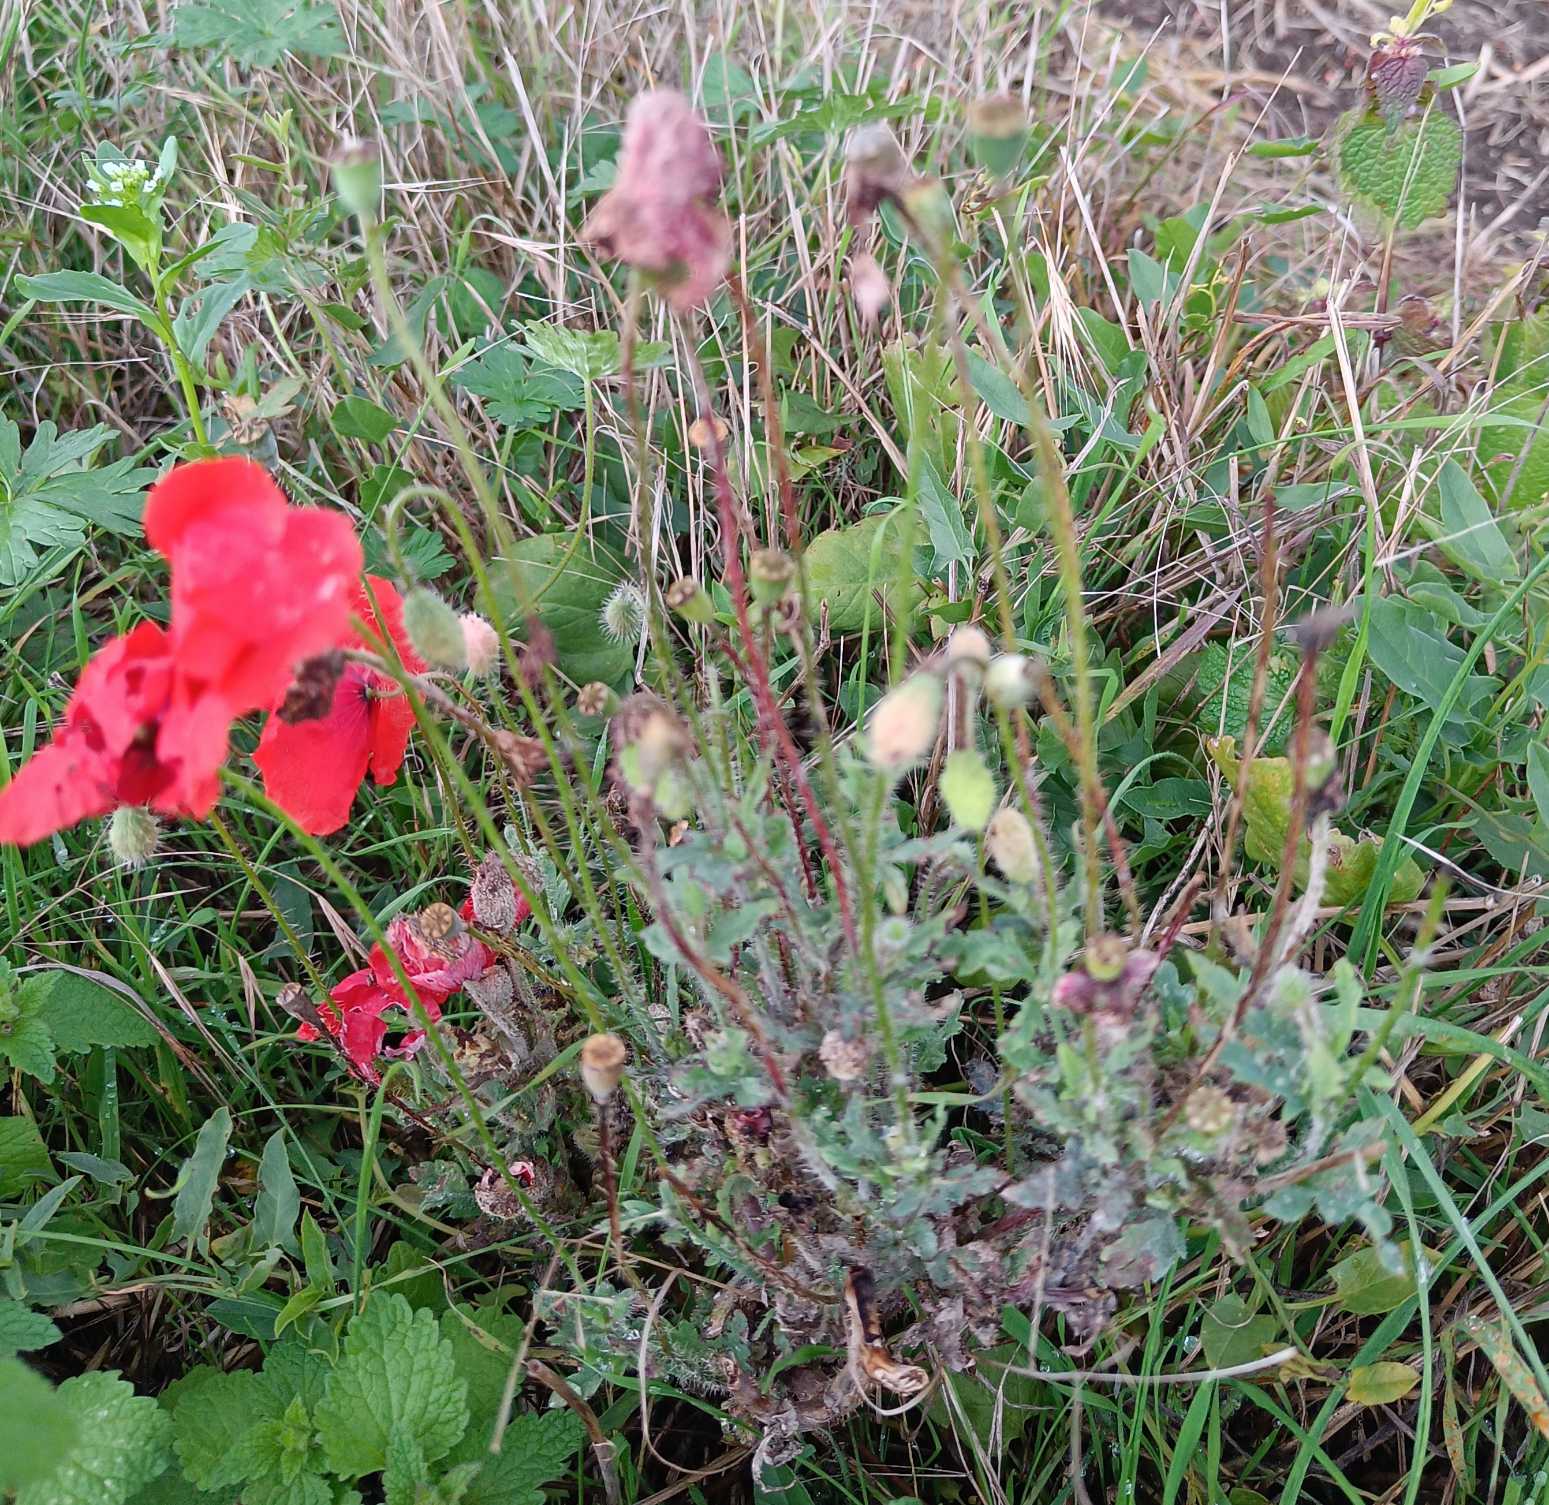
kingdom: Plantae
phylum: Tracheophyta
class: Magnoliopsida
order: Ranunculales
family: Papaveraceae
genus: Papaver
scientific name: Papaver rhoeas
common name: Korn-valmue
